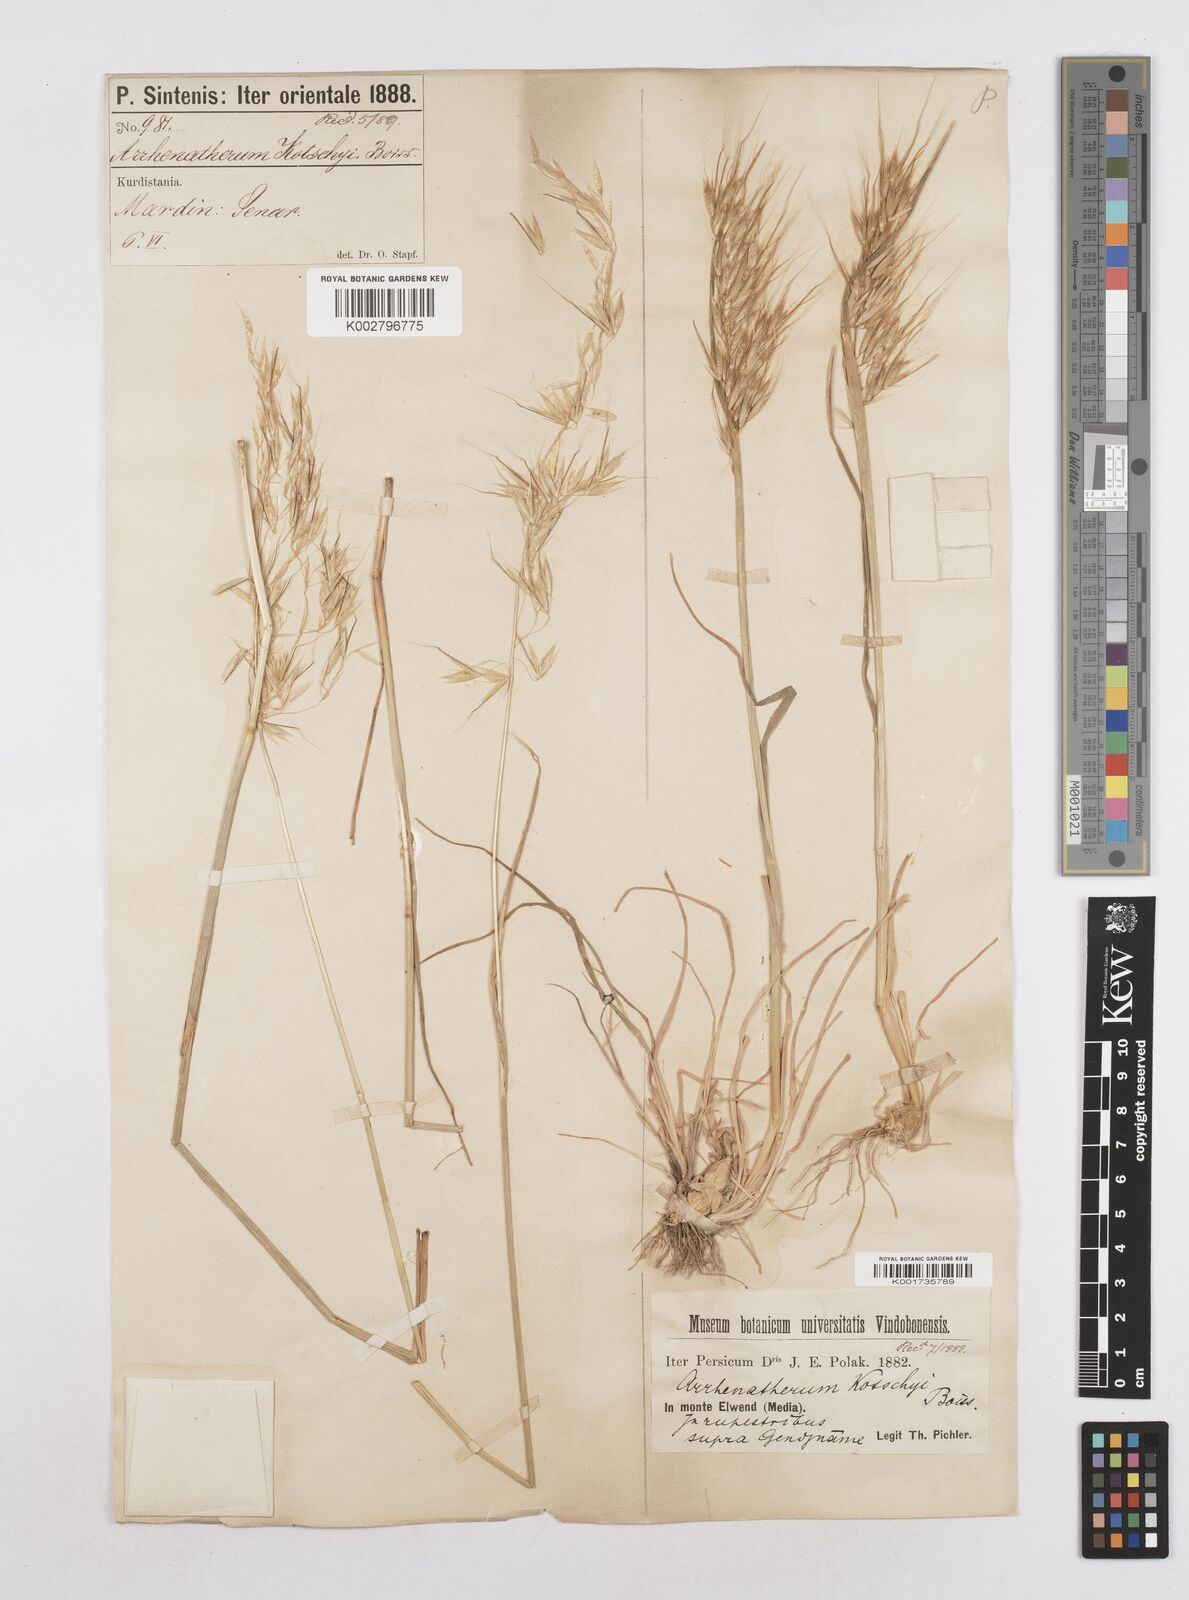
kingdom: Plantae
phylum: Tracheophyta
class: Liliopsida
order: Poales
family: Poaceae
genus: Arrhenatherum
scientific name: Arrhenatherum kotschyi
